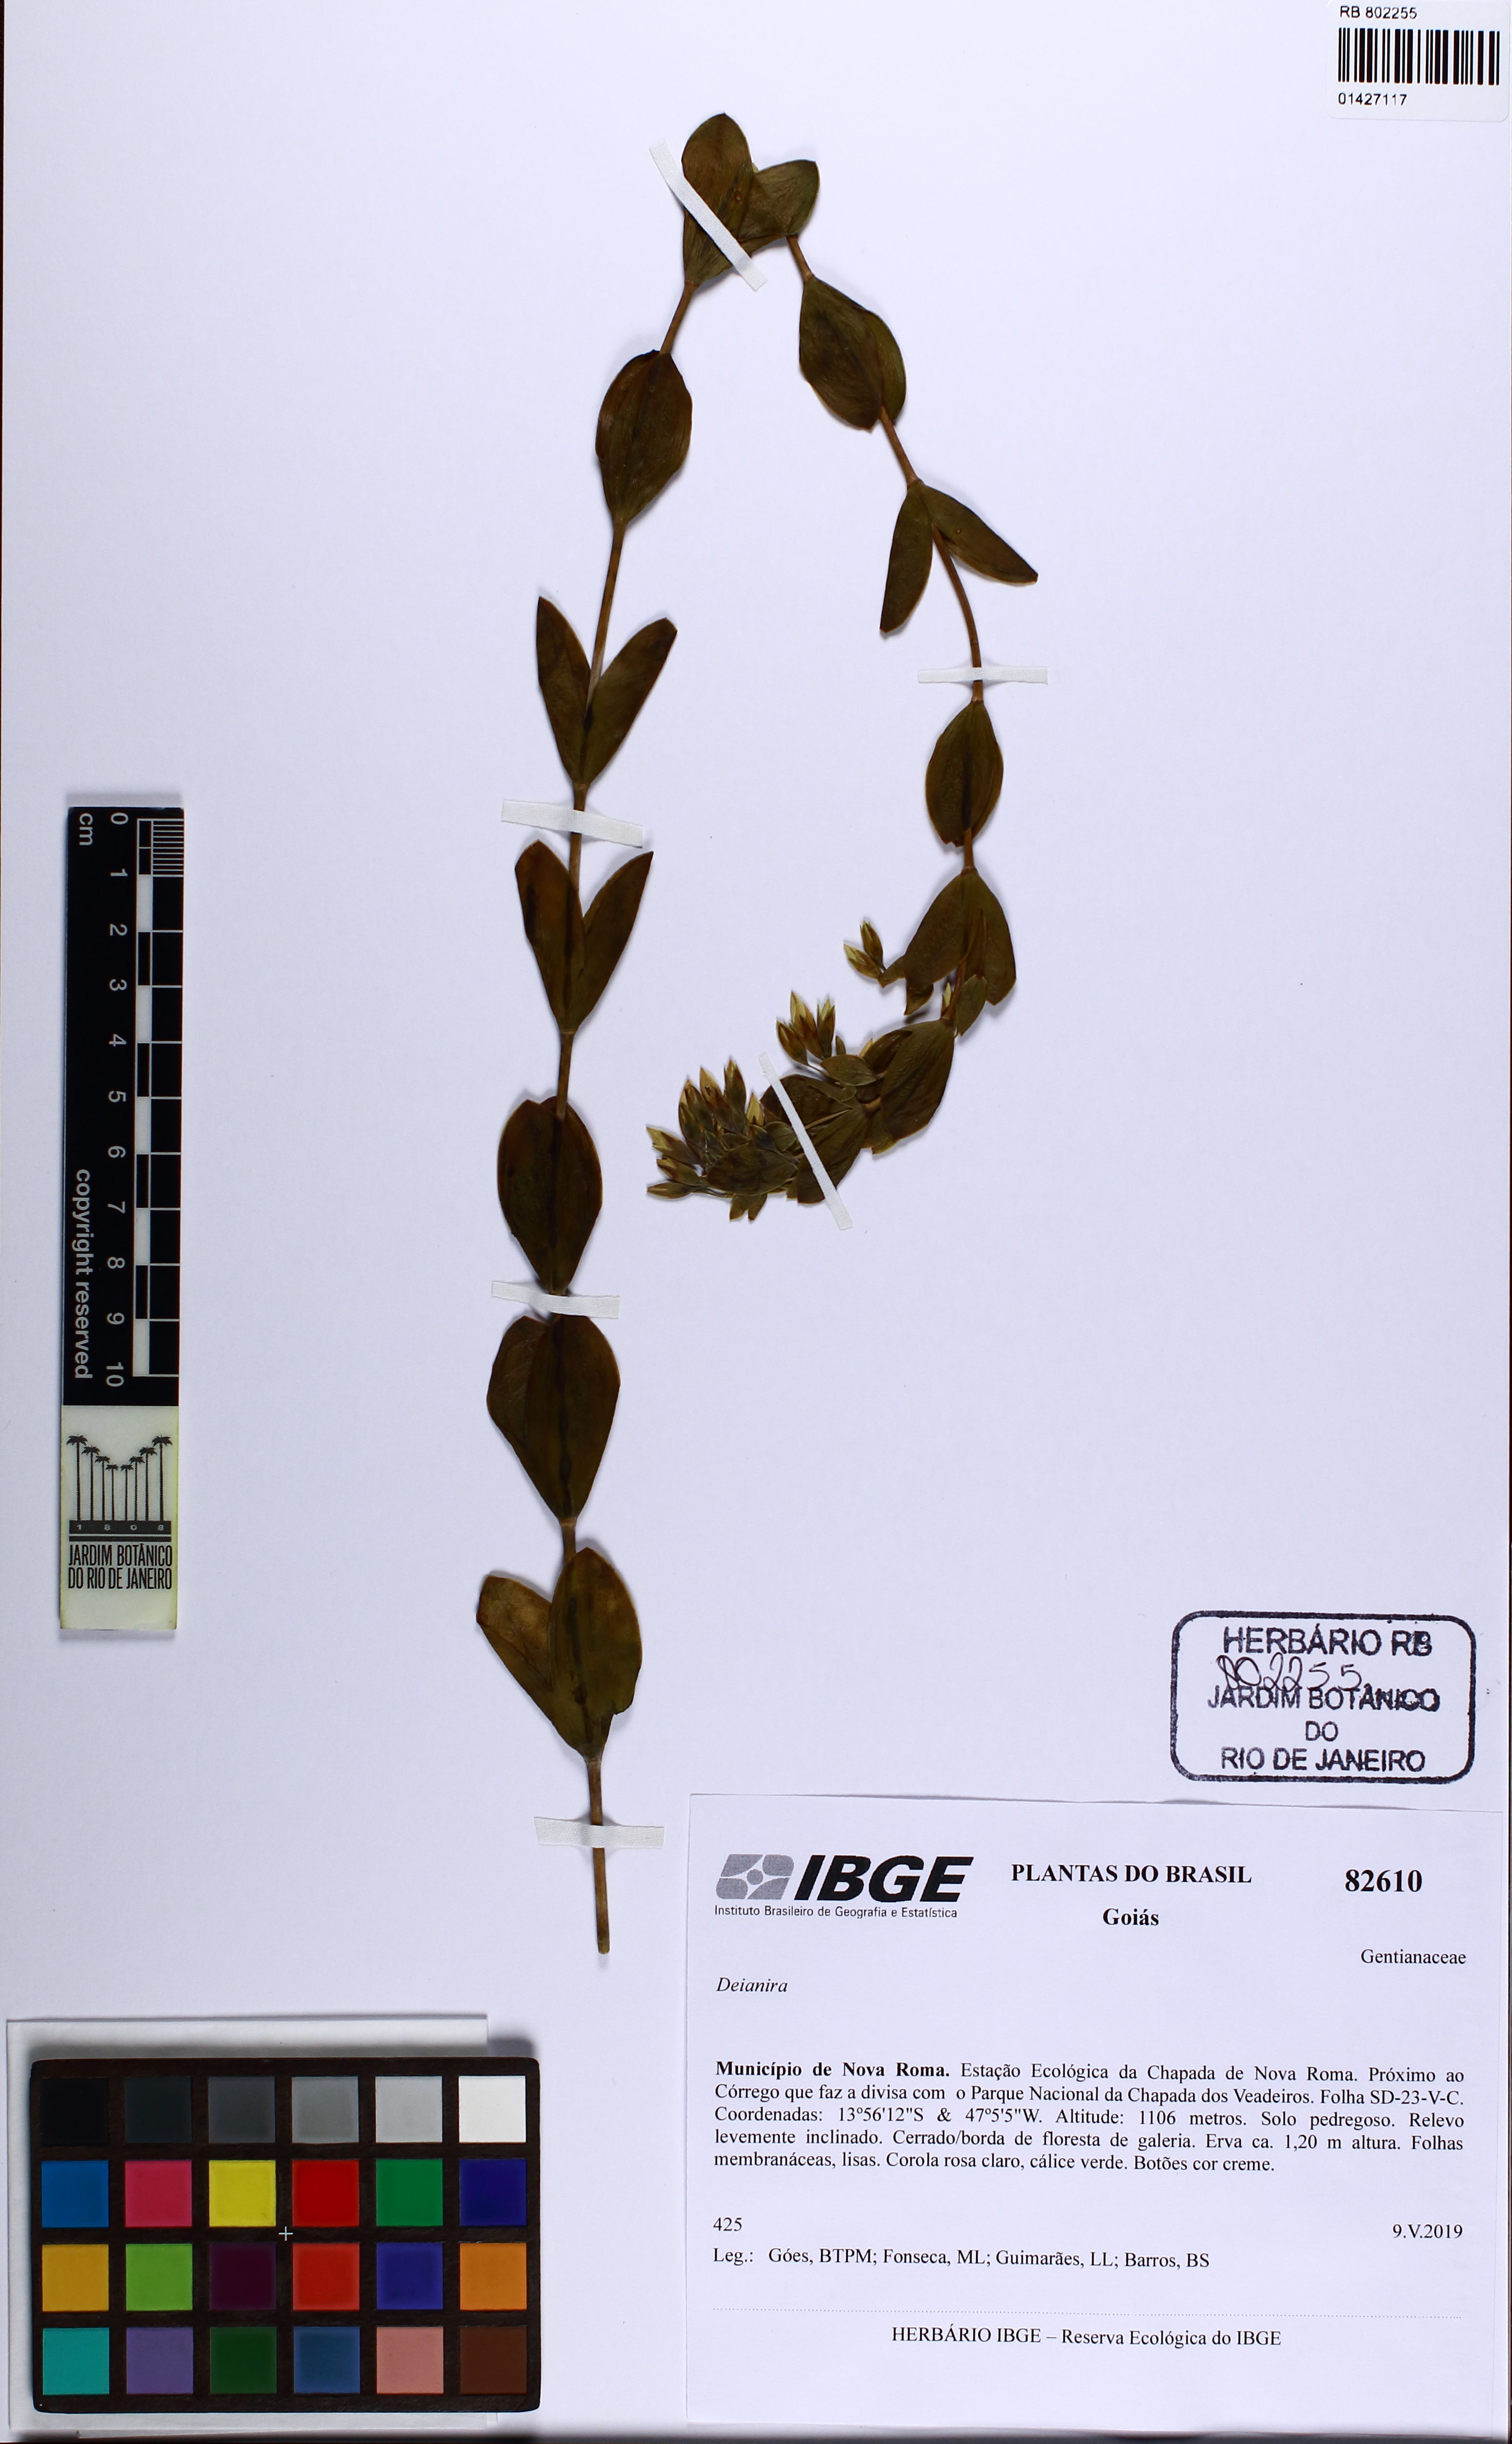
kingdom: Plantae
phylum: Tracheophyta
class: Magnoliopsida
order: Gentianales
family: Gentianaceae
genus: Deianira
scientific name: Deianira
